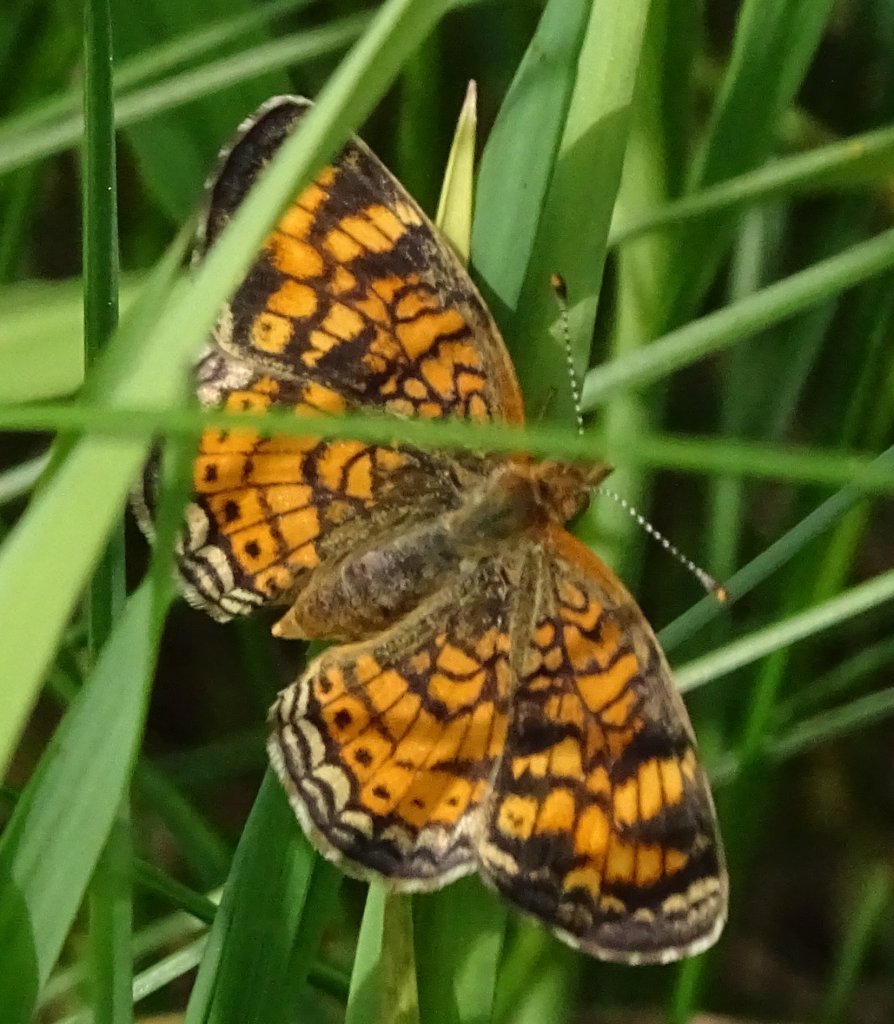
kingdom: Animalia
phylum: Arthropoda
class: Insecta
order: Lepidoptera
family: Nymphalidae
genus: Phyciodes
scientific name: Phyciodes
